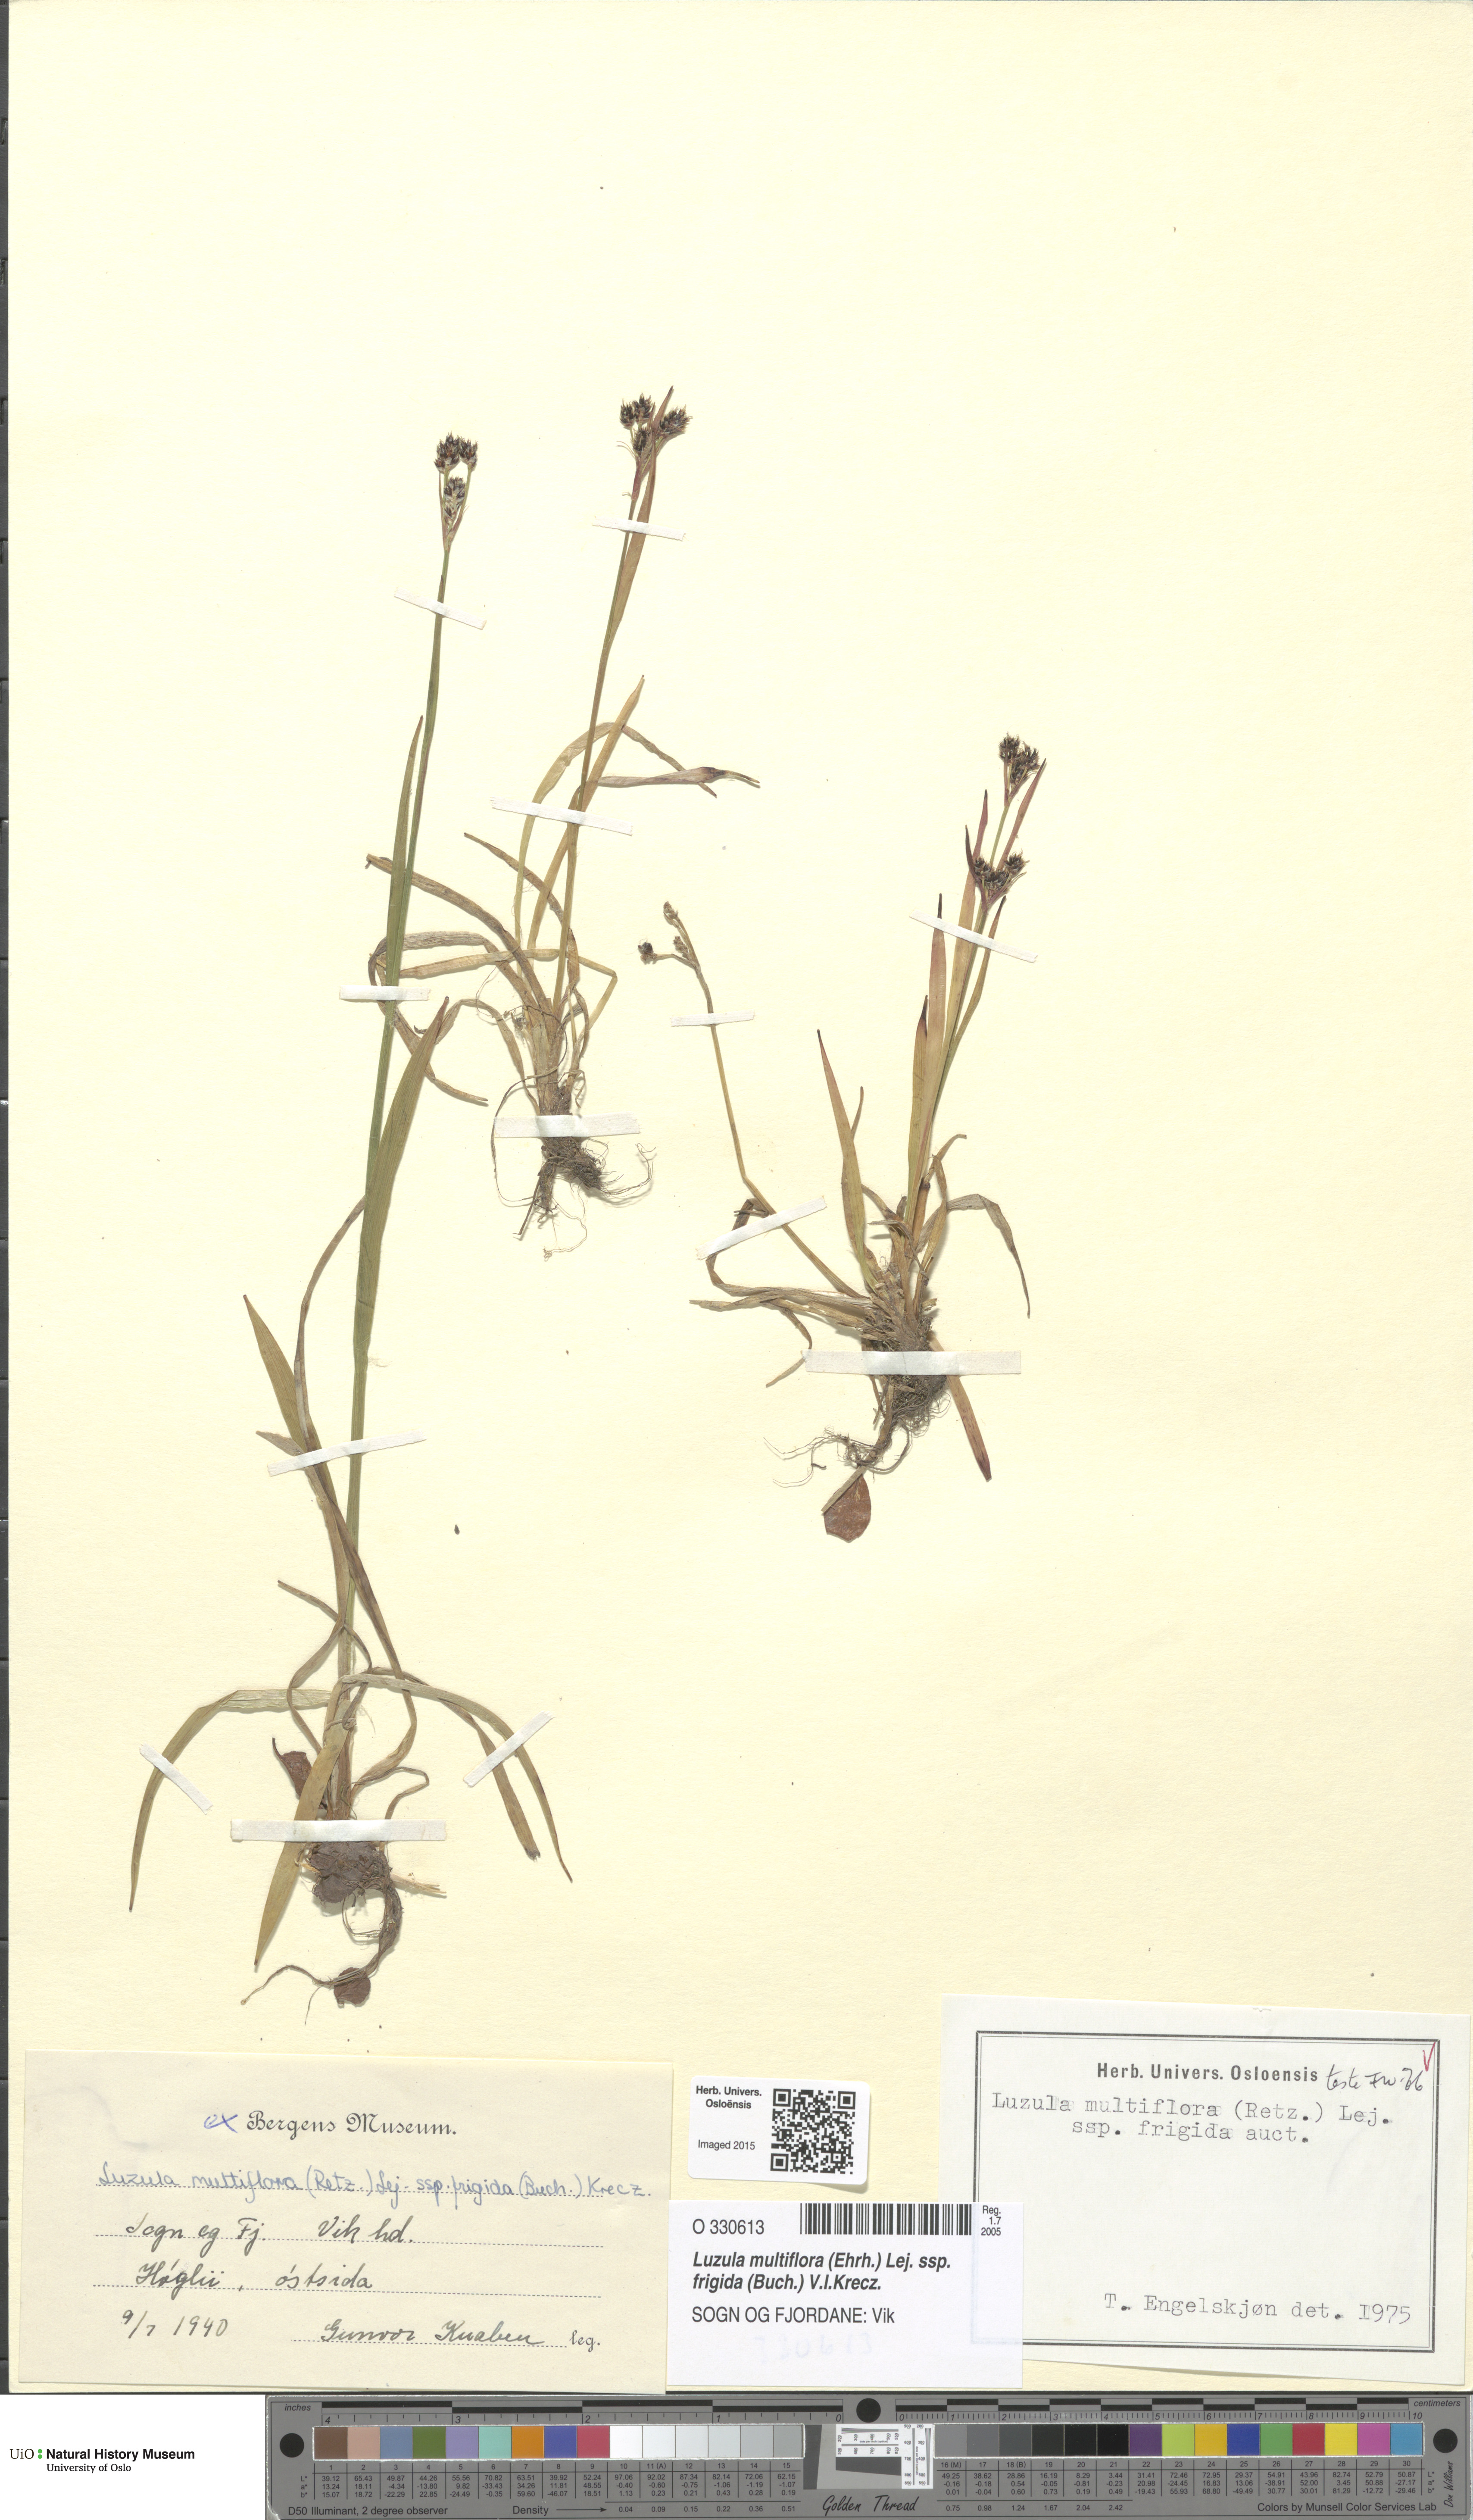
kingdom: Plantae
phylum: Tracheophyta
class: Liliopsida
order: Poales
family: Juncaceae
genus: Luzula
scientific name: Luzula multiflora
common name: Heath wood-rush
